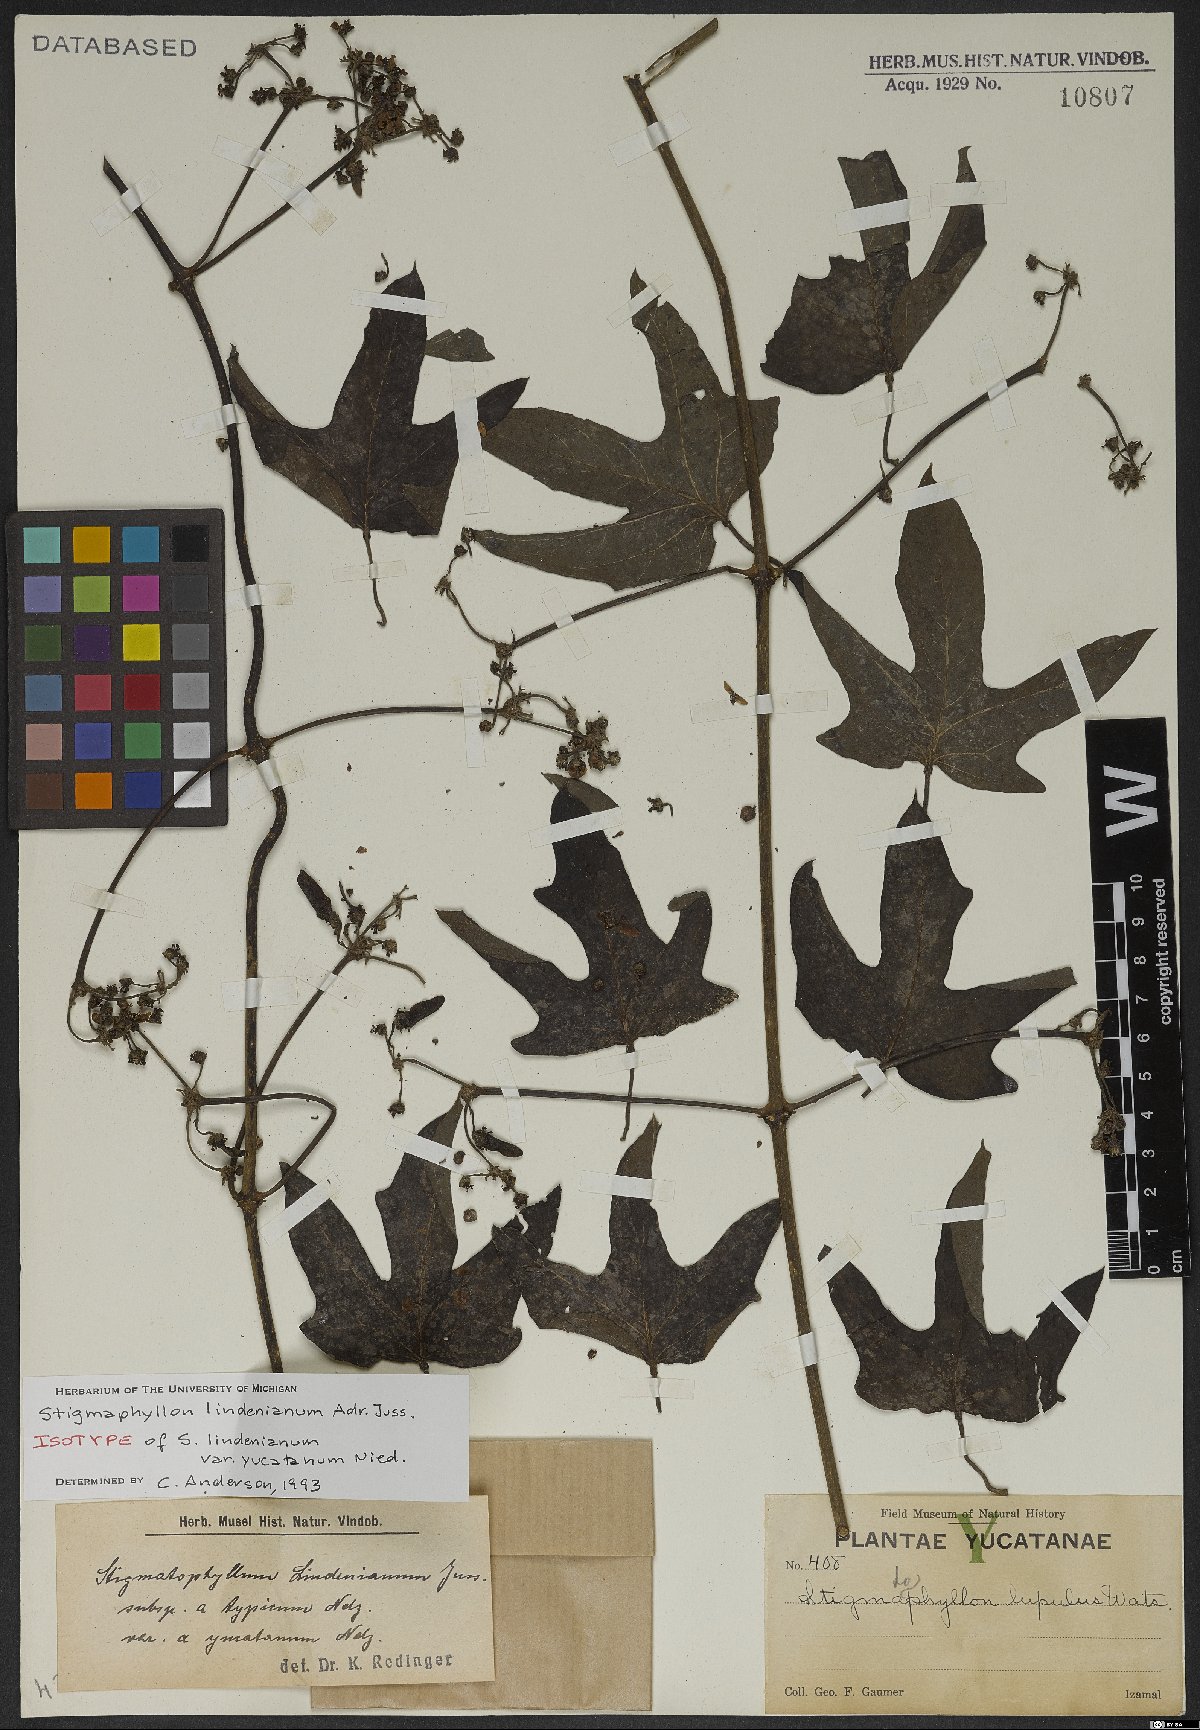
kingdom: Plantae
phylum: Tracheophyta
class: Magnoliopsida
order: Malpighiales
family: Malpighiaceae
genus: Stigmaphyllon
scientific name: Stigmaphyllon lindenianum
